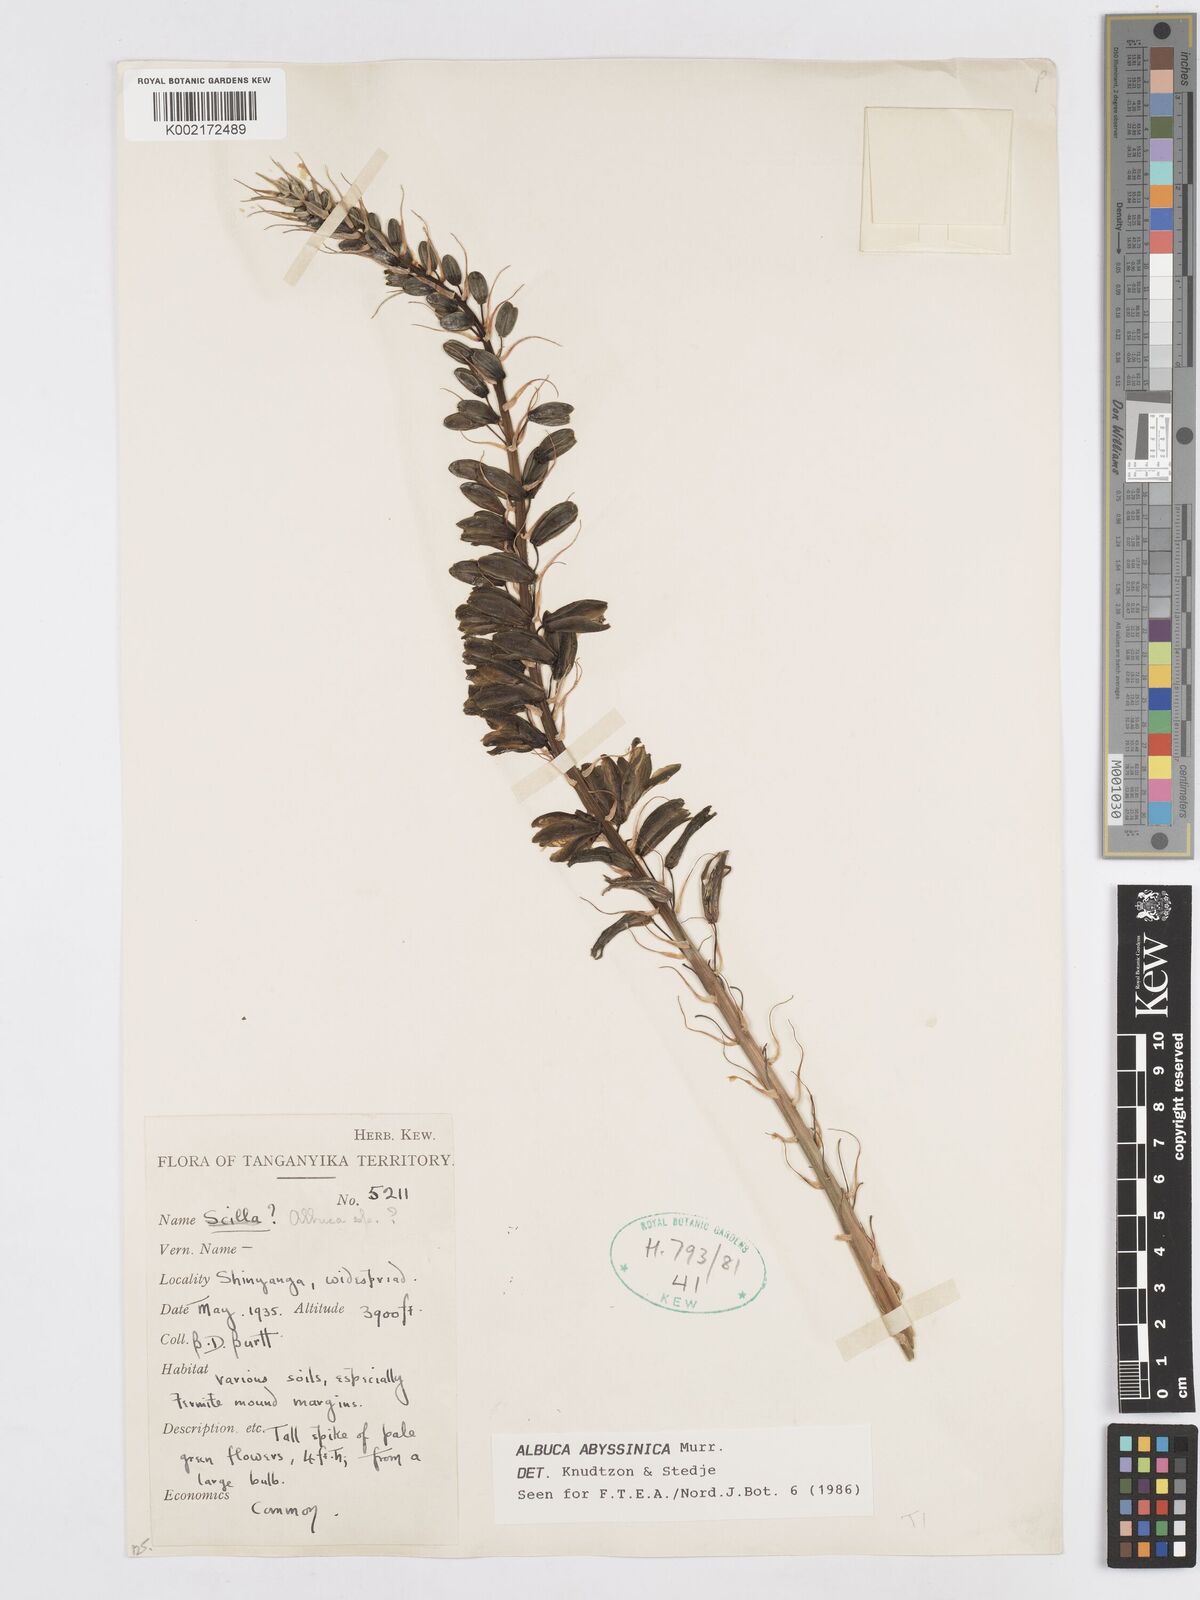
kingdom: Plantae
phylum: Tracheophyta
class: Liliopsida
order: Asparagales
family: Asparagaceae
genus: Albuca
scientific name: Albuca abyssinica
